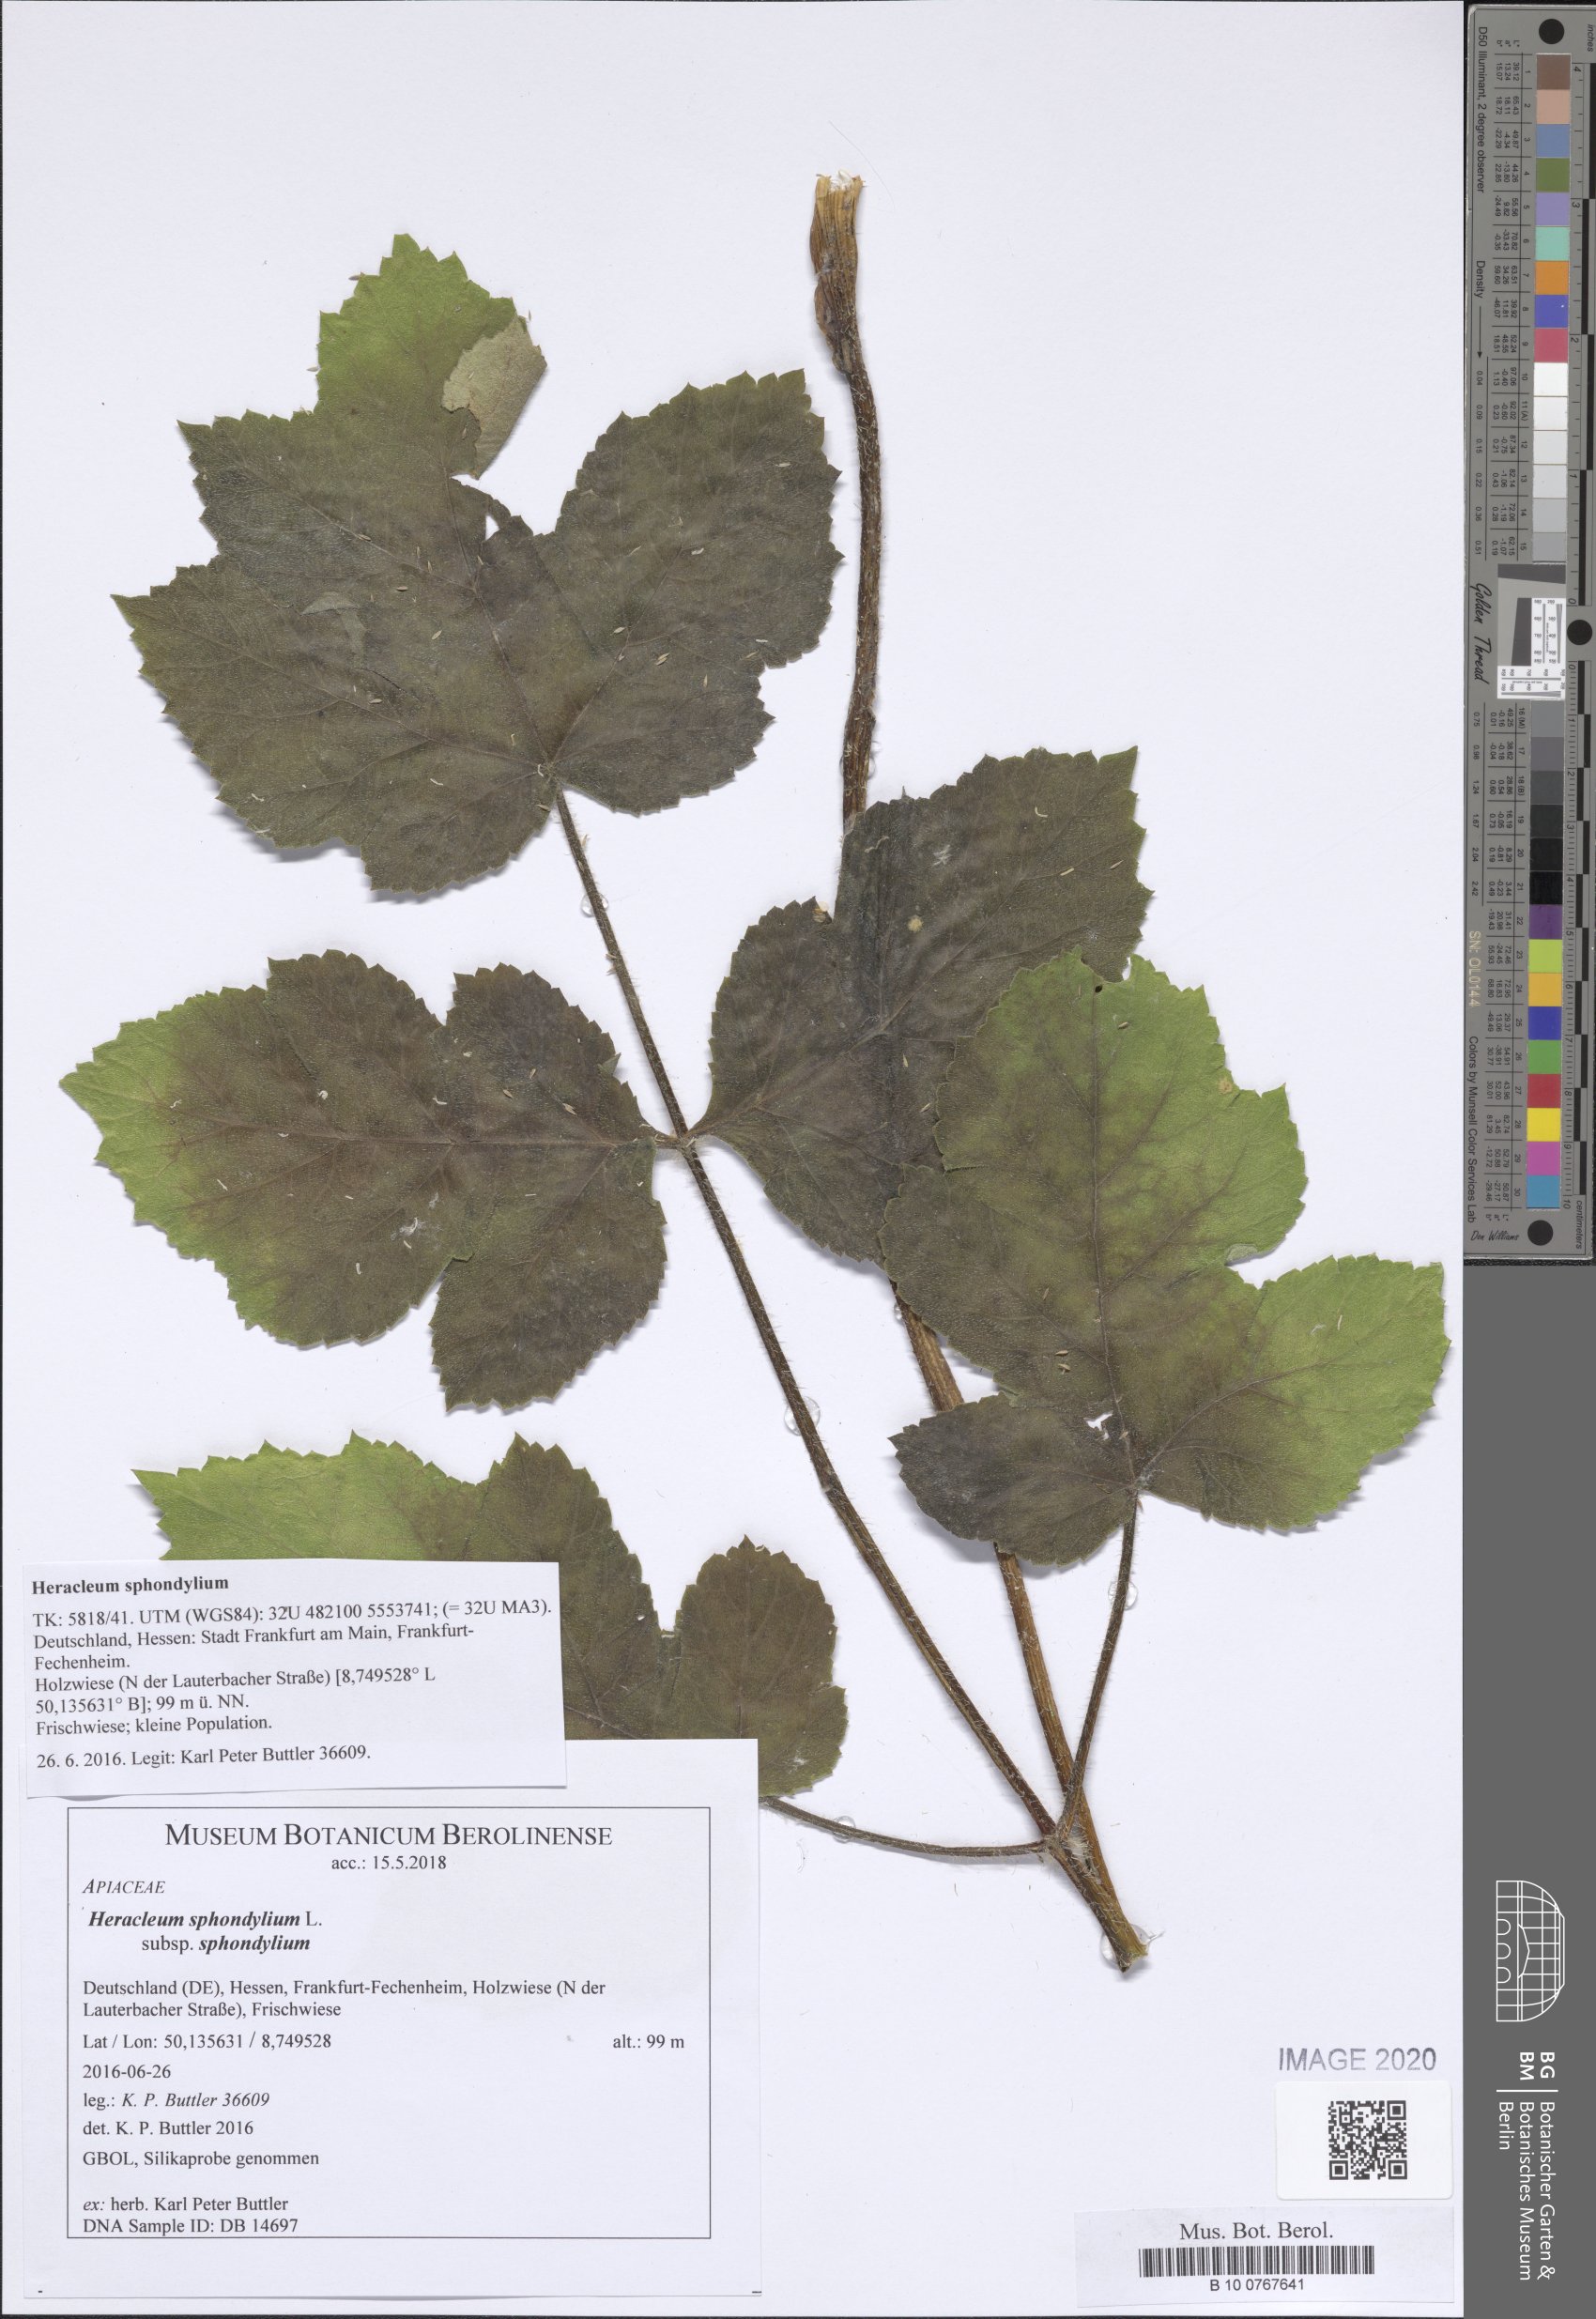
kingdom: Plantae
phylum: Tracheophyta
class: Magnoliopsida
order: Apiales
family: Apiaceae
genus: Heracleum
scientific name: Heracleum sphondylium
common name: Hogweed
